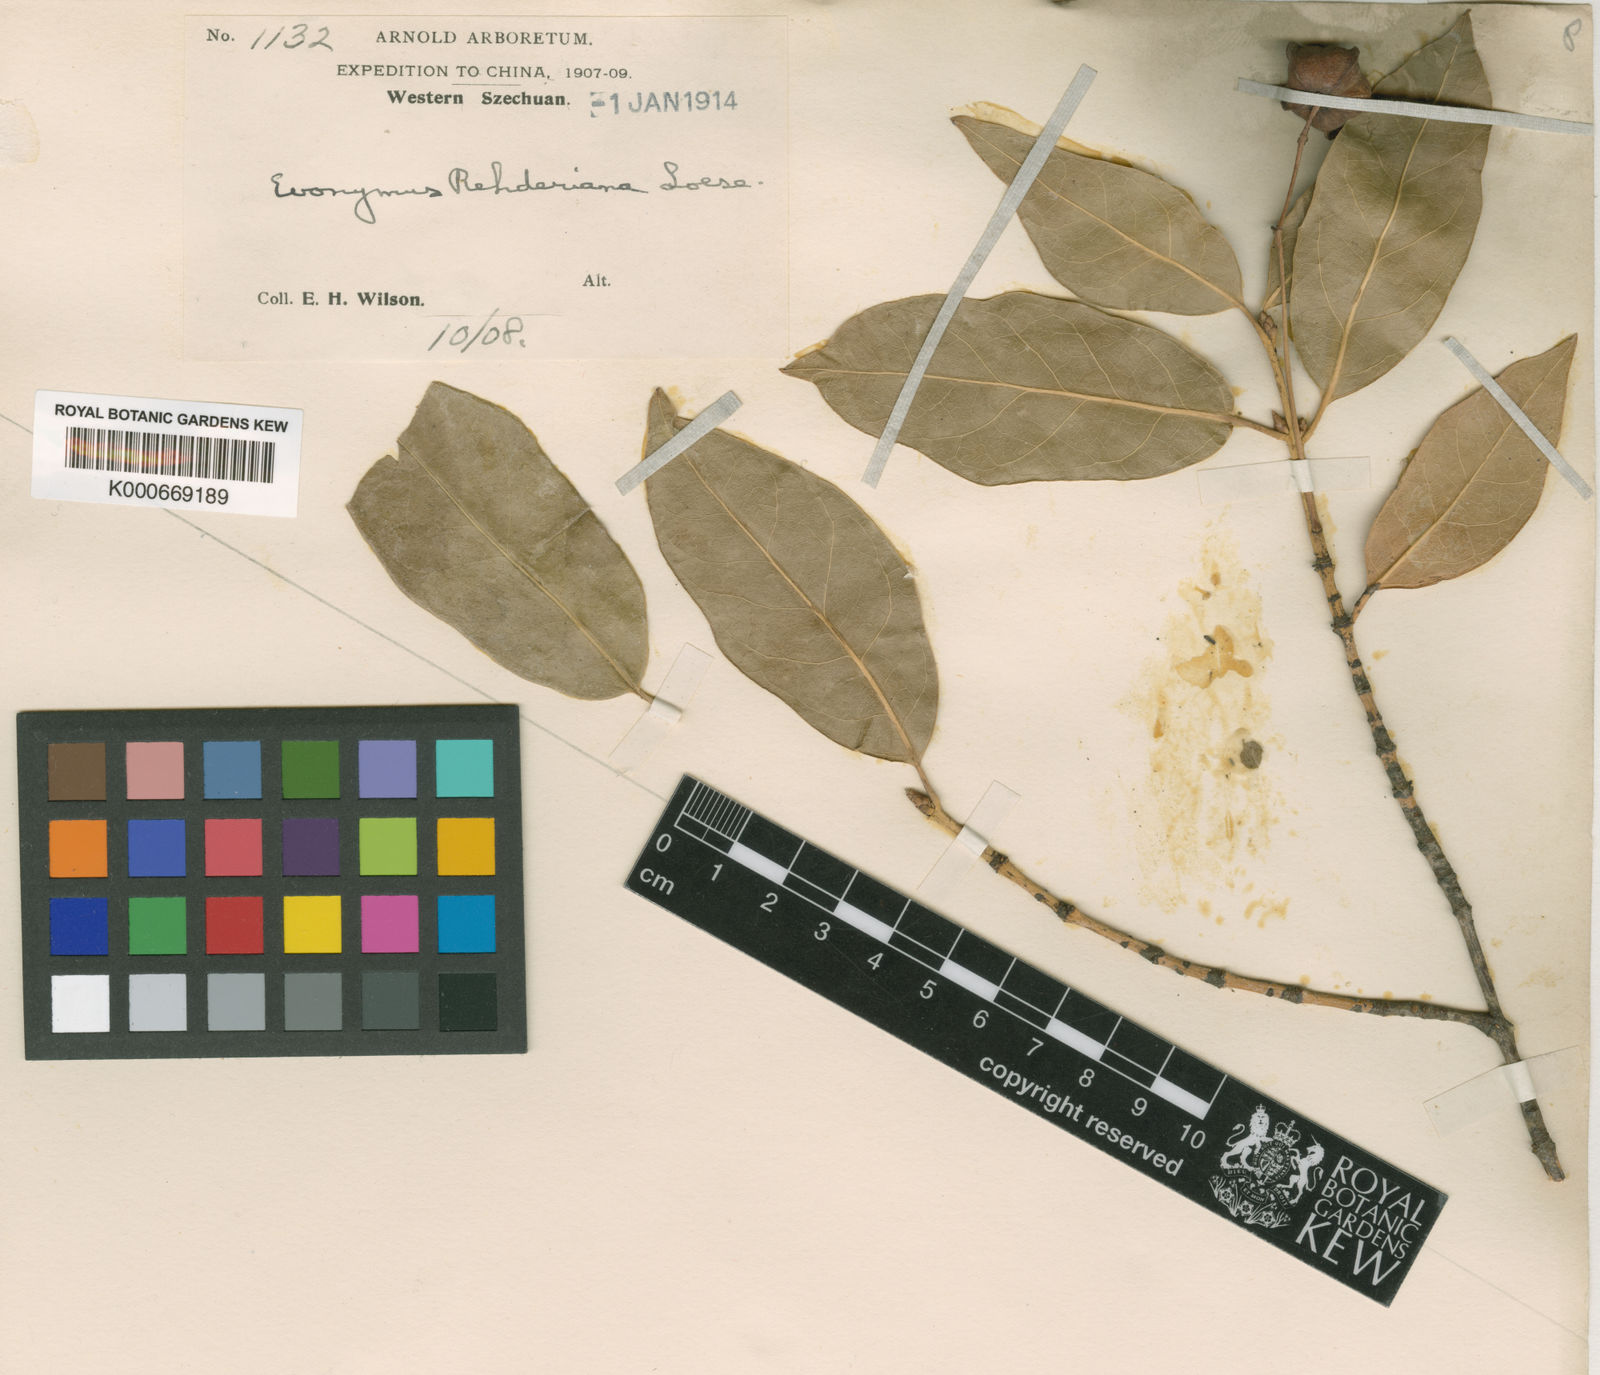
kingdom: Plantae
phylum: Tracheophyta
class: Magnoliopsida
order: Celastrales
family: Celastraceae
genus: Euonymus
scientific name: Euonymus rehderianus
